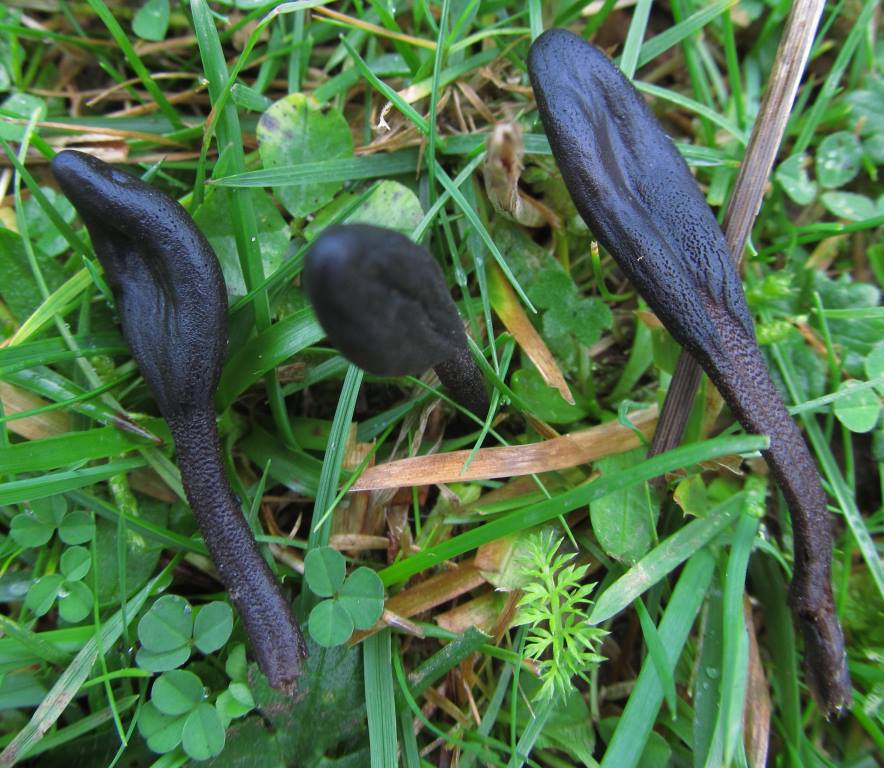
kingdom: Fungi
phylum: Ascomycota
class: Geoglossomycetes
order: Geoglossales
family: Geoglossaceae
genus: Geoglossum
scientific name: Geoglossum
